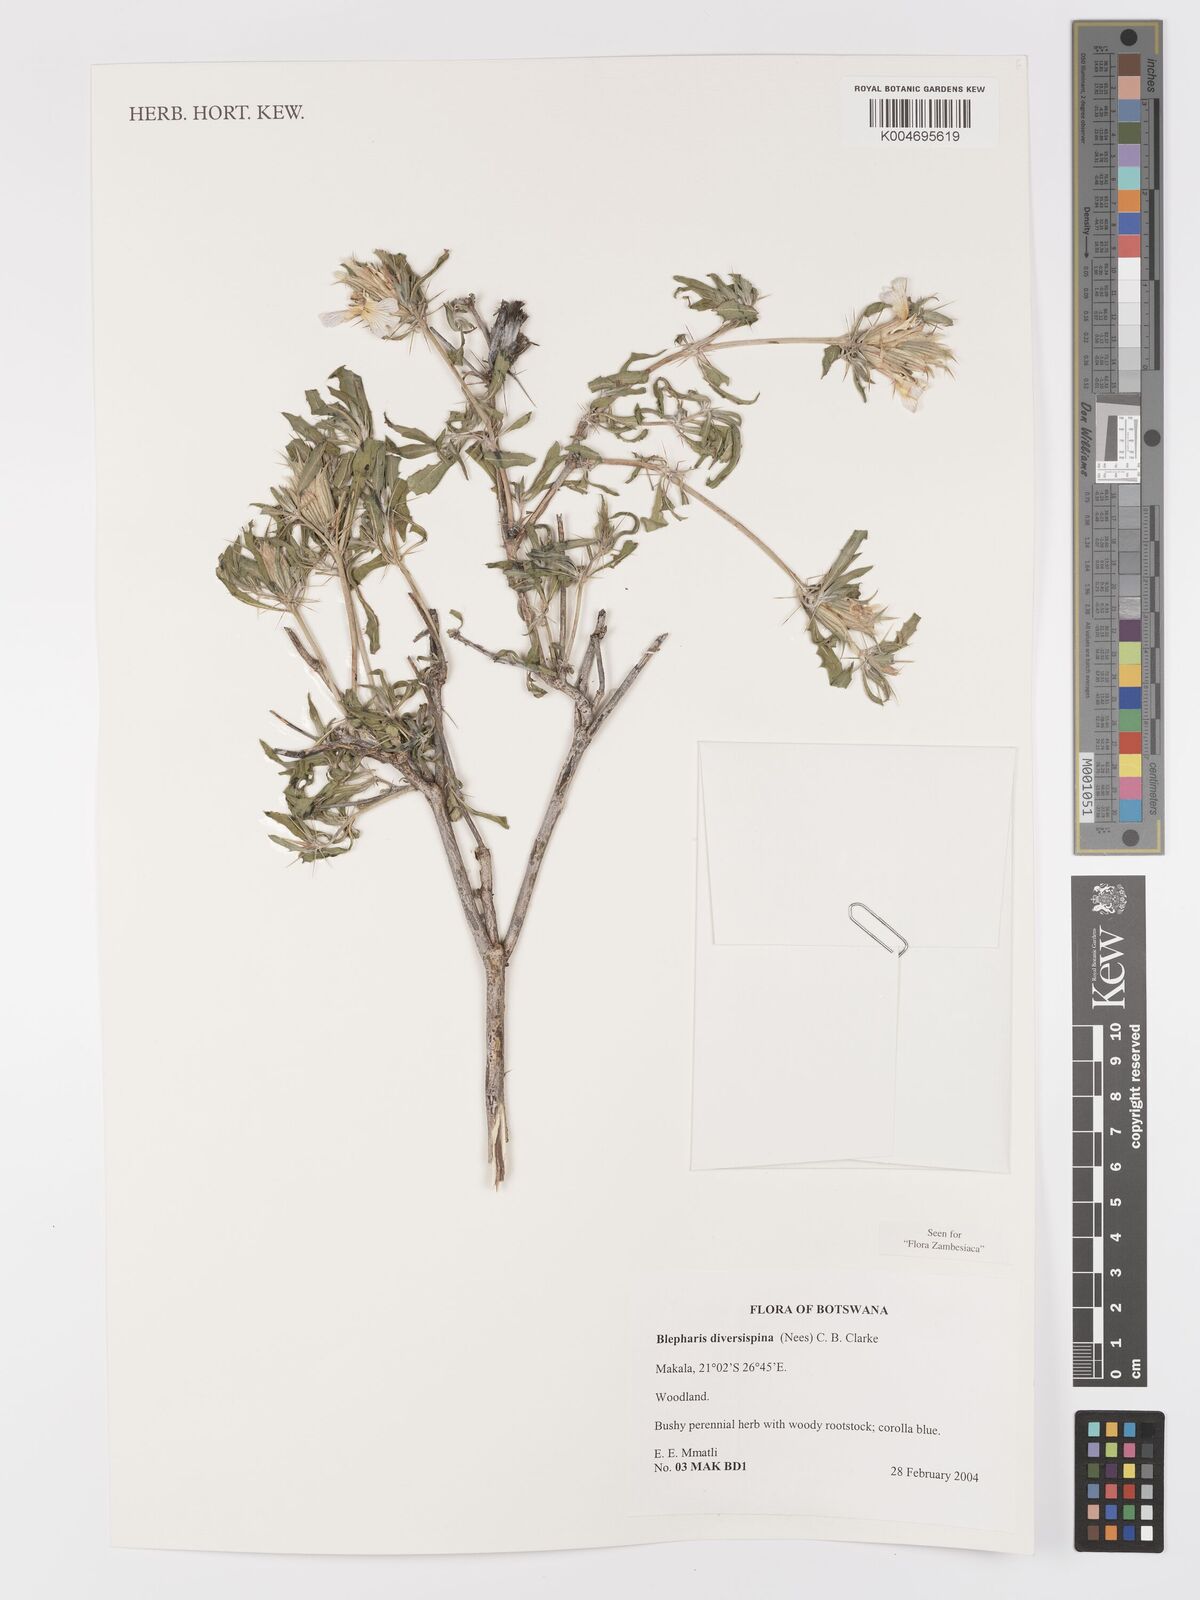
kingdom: Plantae
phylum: Tracheophyta
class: Magnoliopsida
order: Lamiales
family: Acanthaceae
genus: Blepharis
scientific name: Blepharis diversispina
